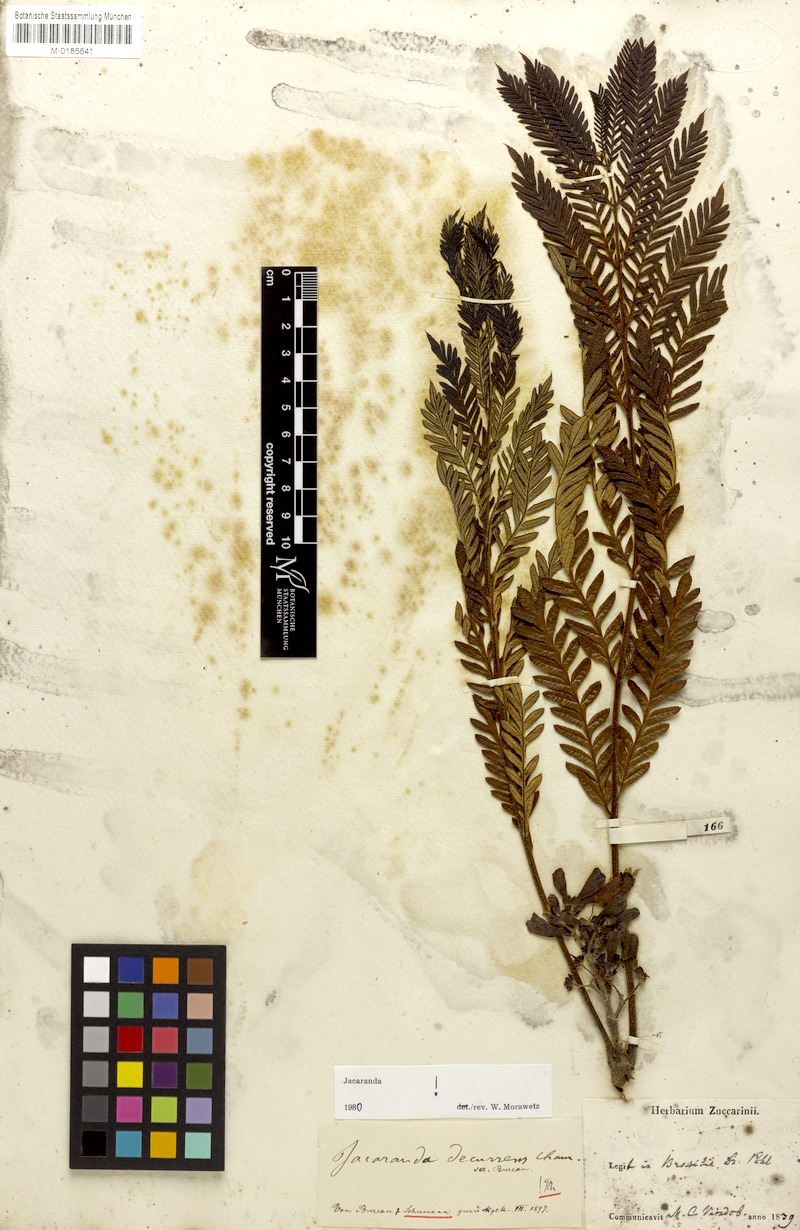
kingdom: Plantae
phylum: Tracheophyta
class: Magnoliopsida
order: Lamiales
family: Bignoniaceae
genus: Jacaranda
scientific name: Jacaranda decurrens
